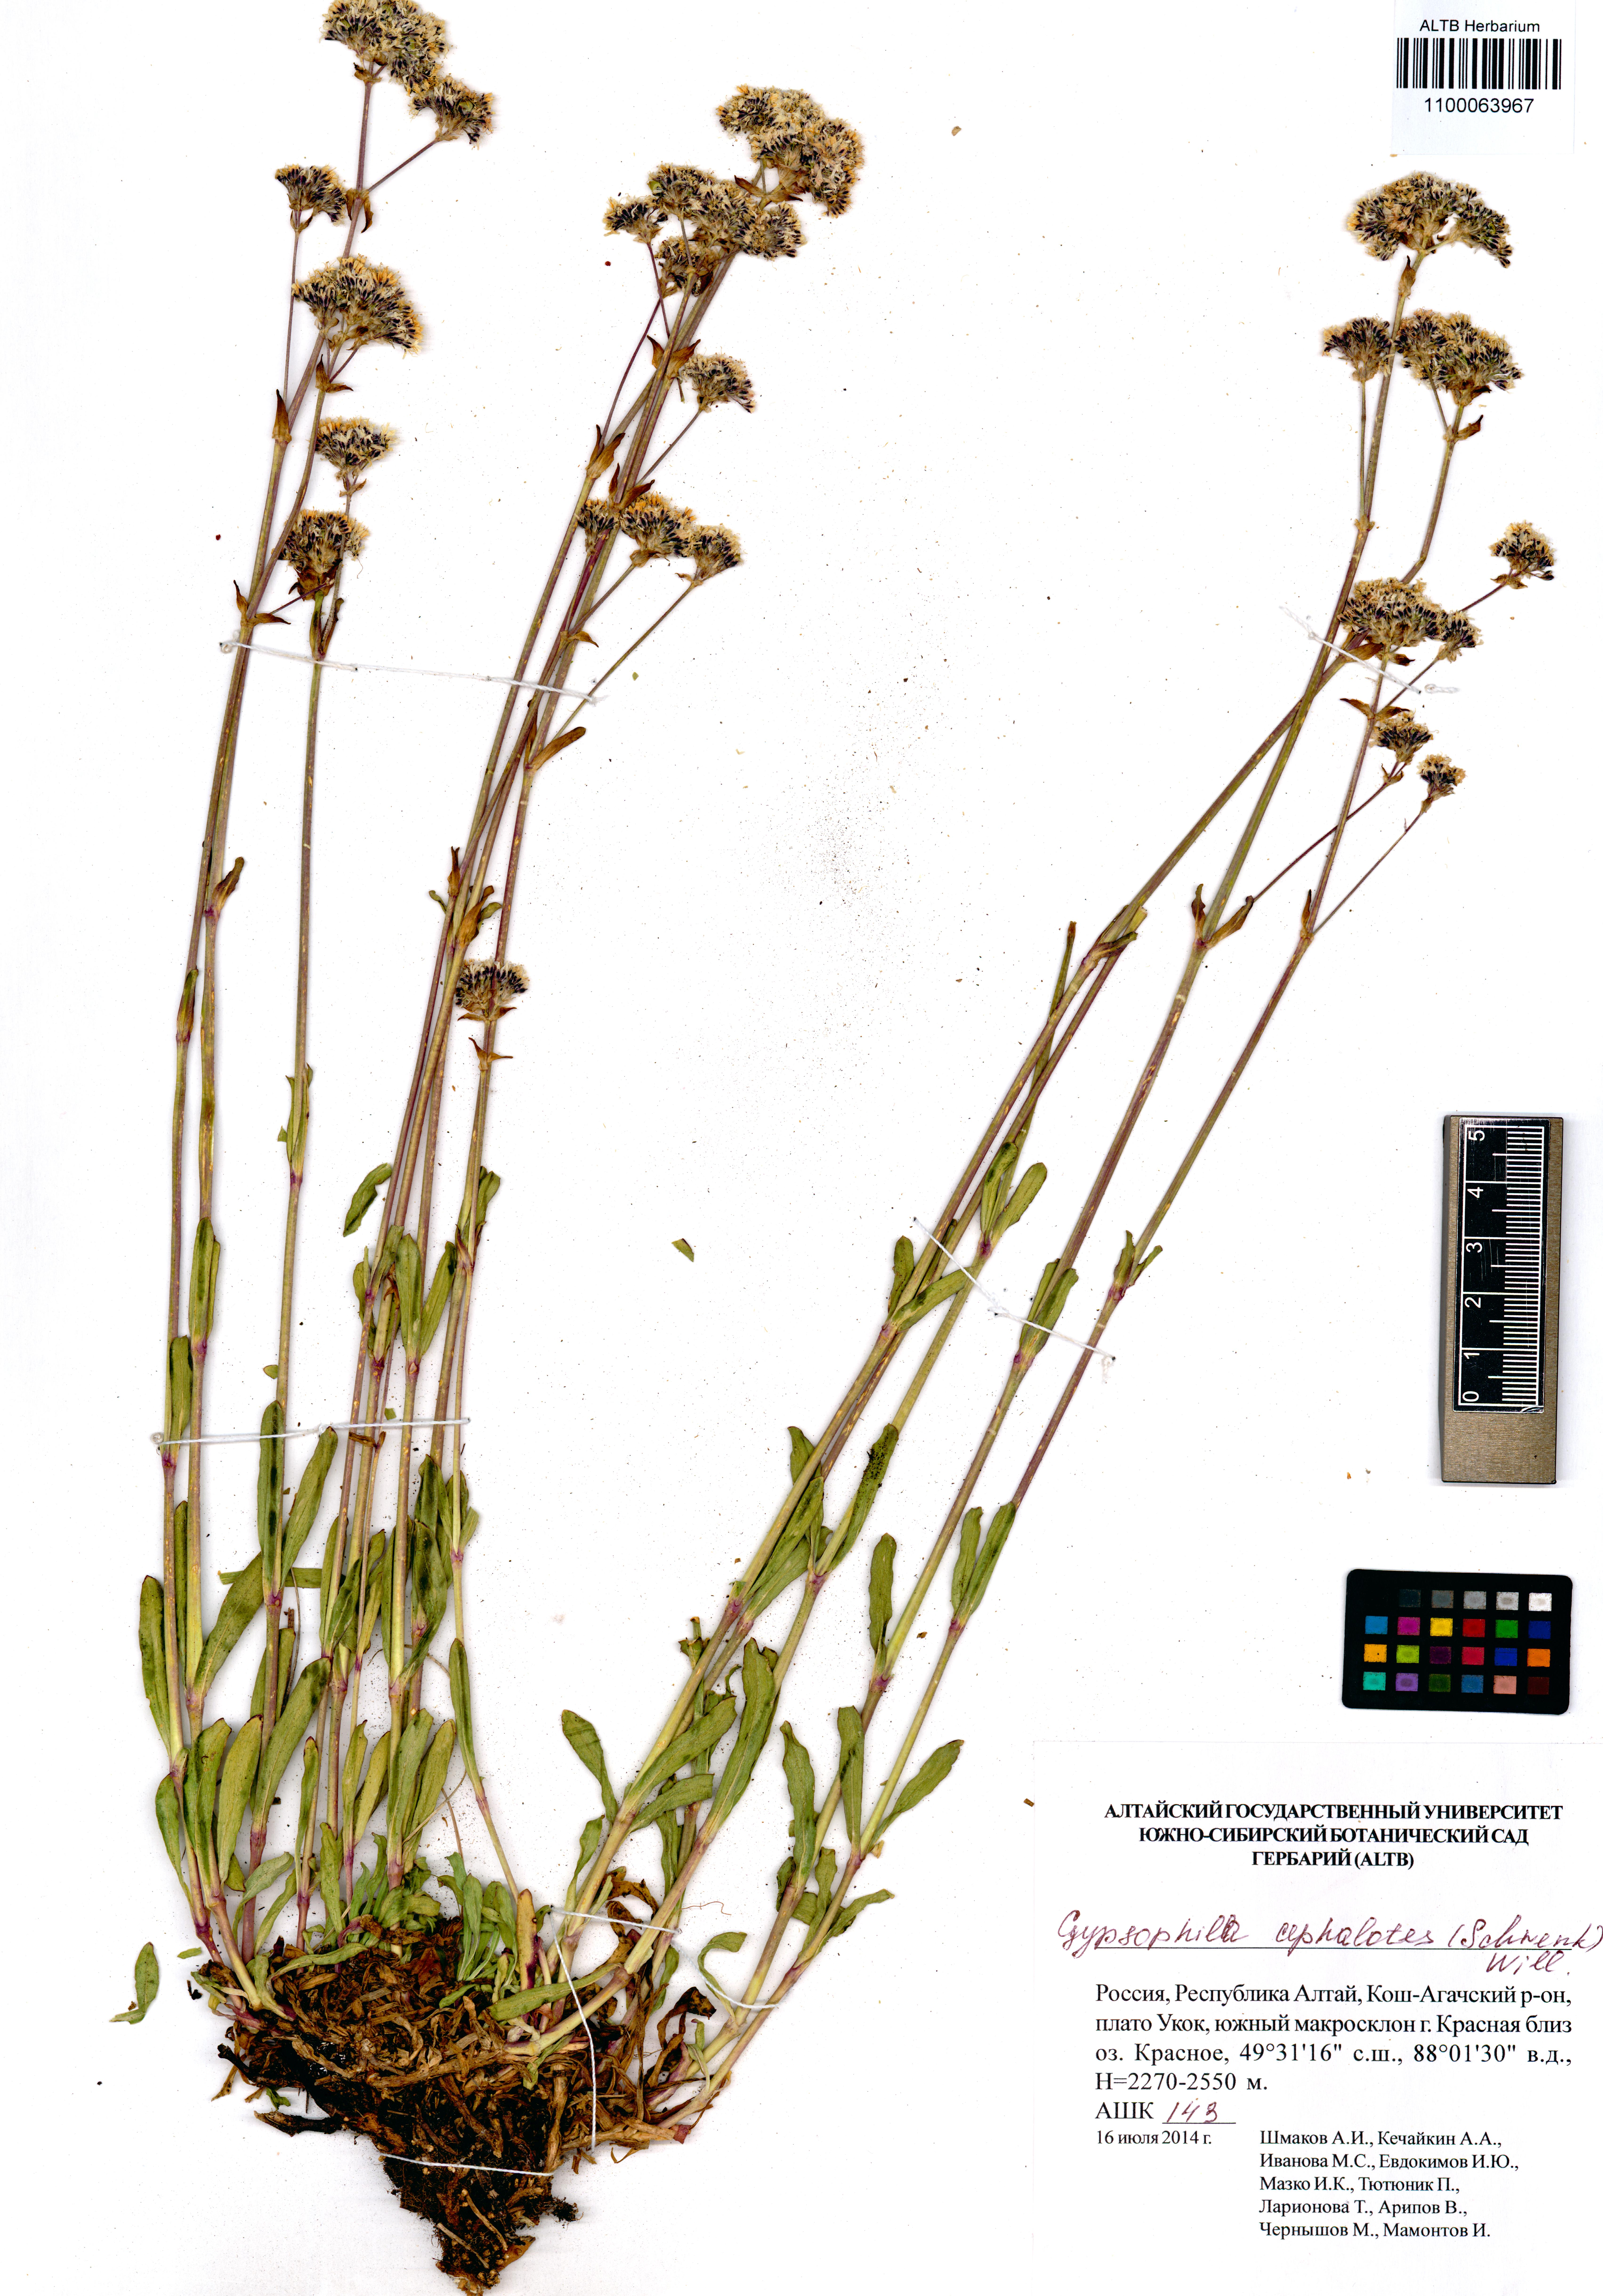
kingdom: Plantae
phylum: Tracheophyta
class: Magnoliopsida
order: Caryophyllales
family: Caryophyllaceae
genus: Gypsophila
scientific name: Gypsophila cephalotes
